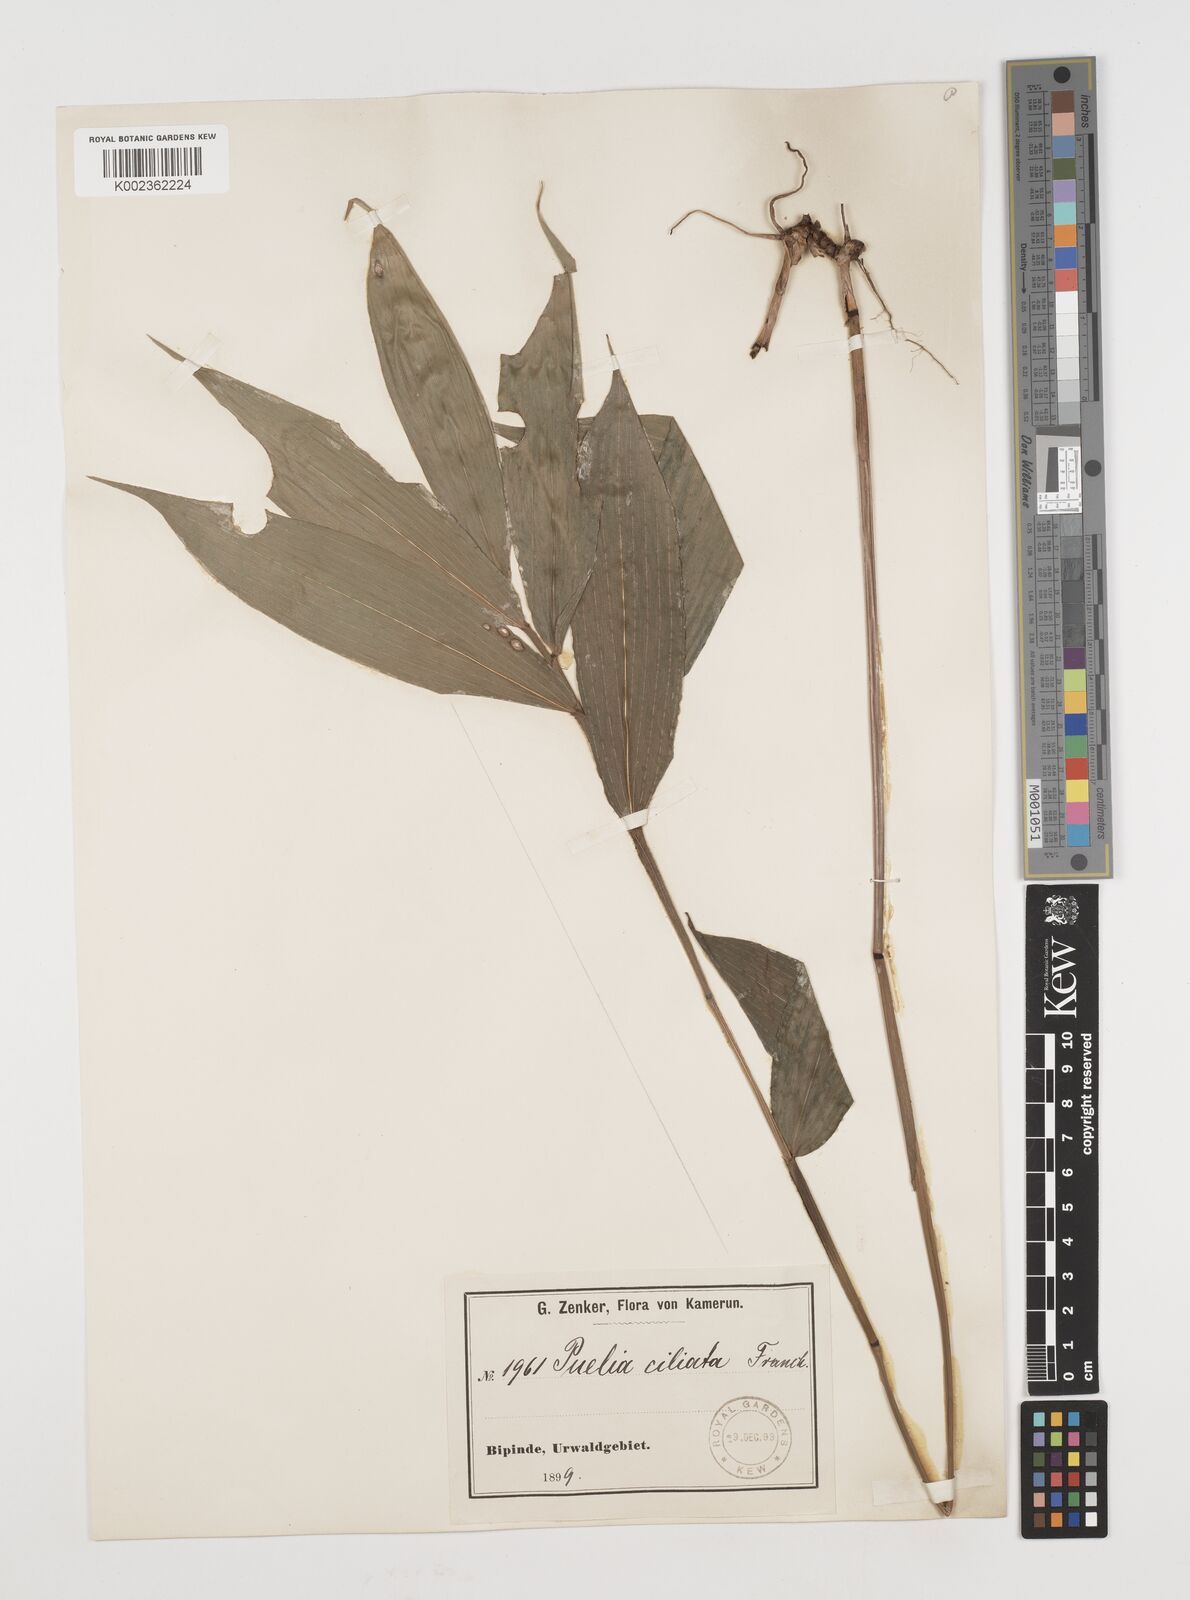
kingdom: Plantae
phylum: Tracheophyta
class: Liliopsida
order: Poales
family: Poaceae
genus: Puelia
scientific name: Puelia ciliata
